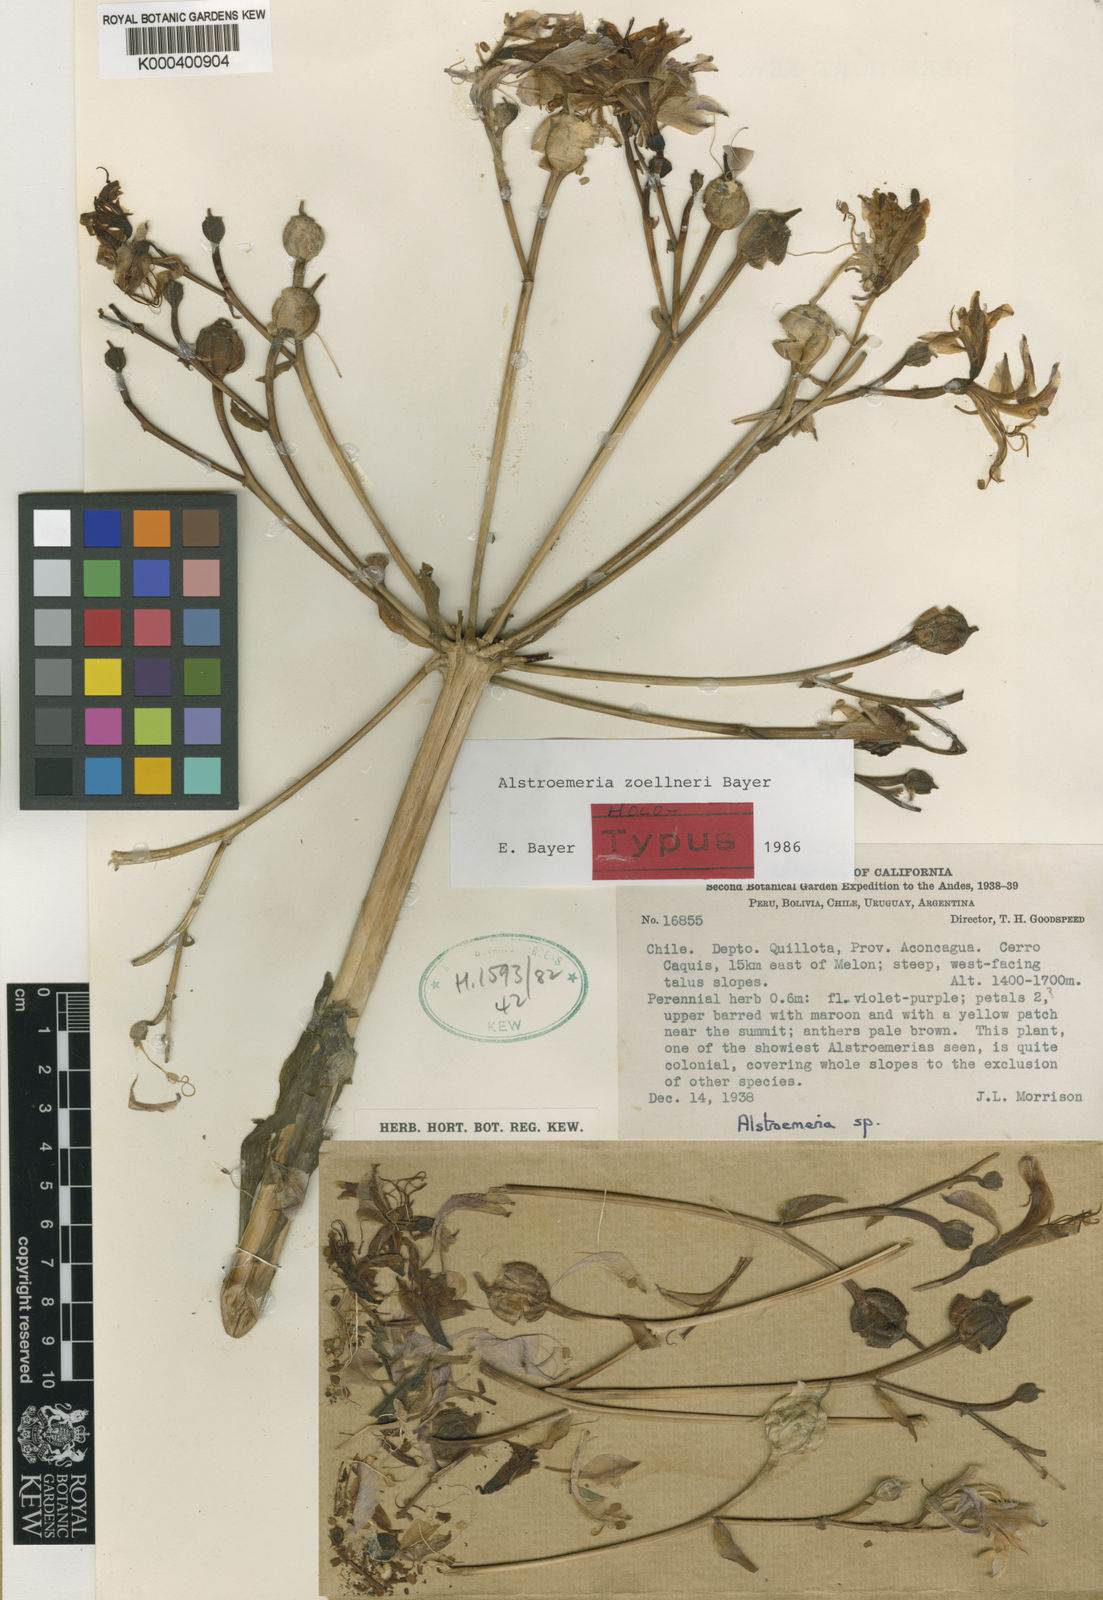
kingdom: Plantae
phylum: Tracheophyta
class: Liliopsida
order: Liliales
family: Alstroemeriaceae
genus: Alstroemeria
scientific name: Alstroemeria zoellneri
